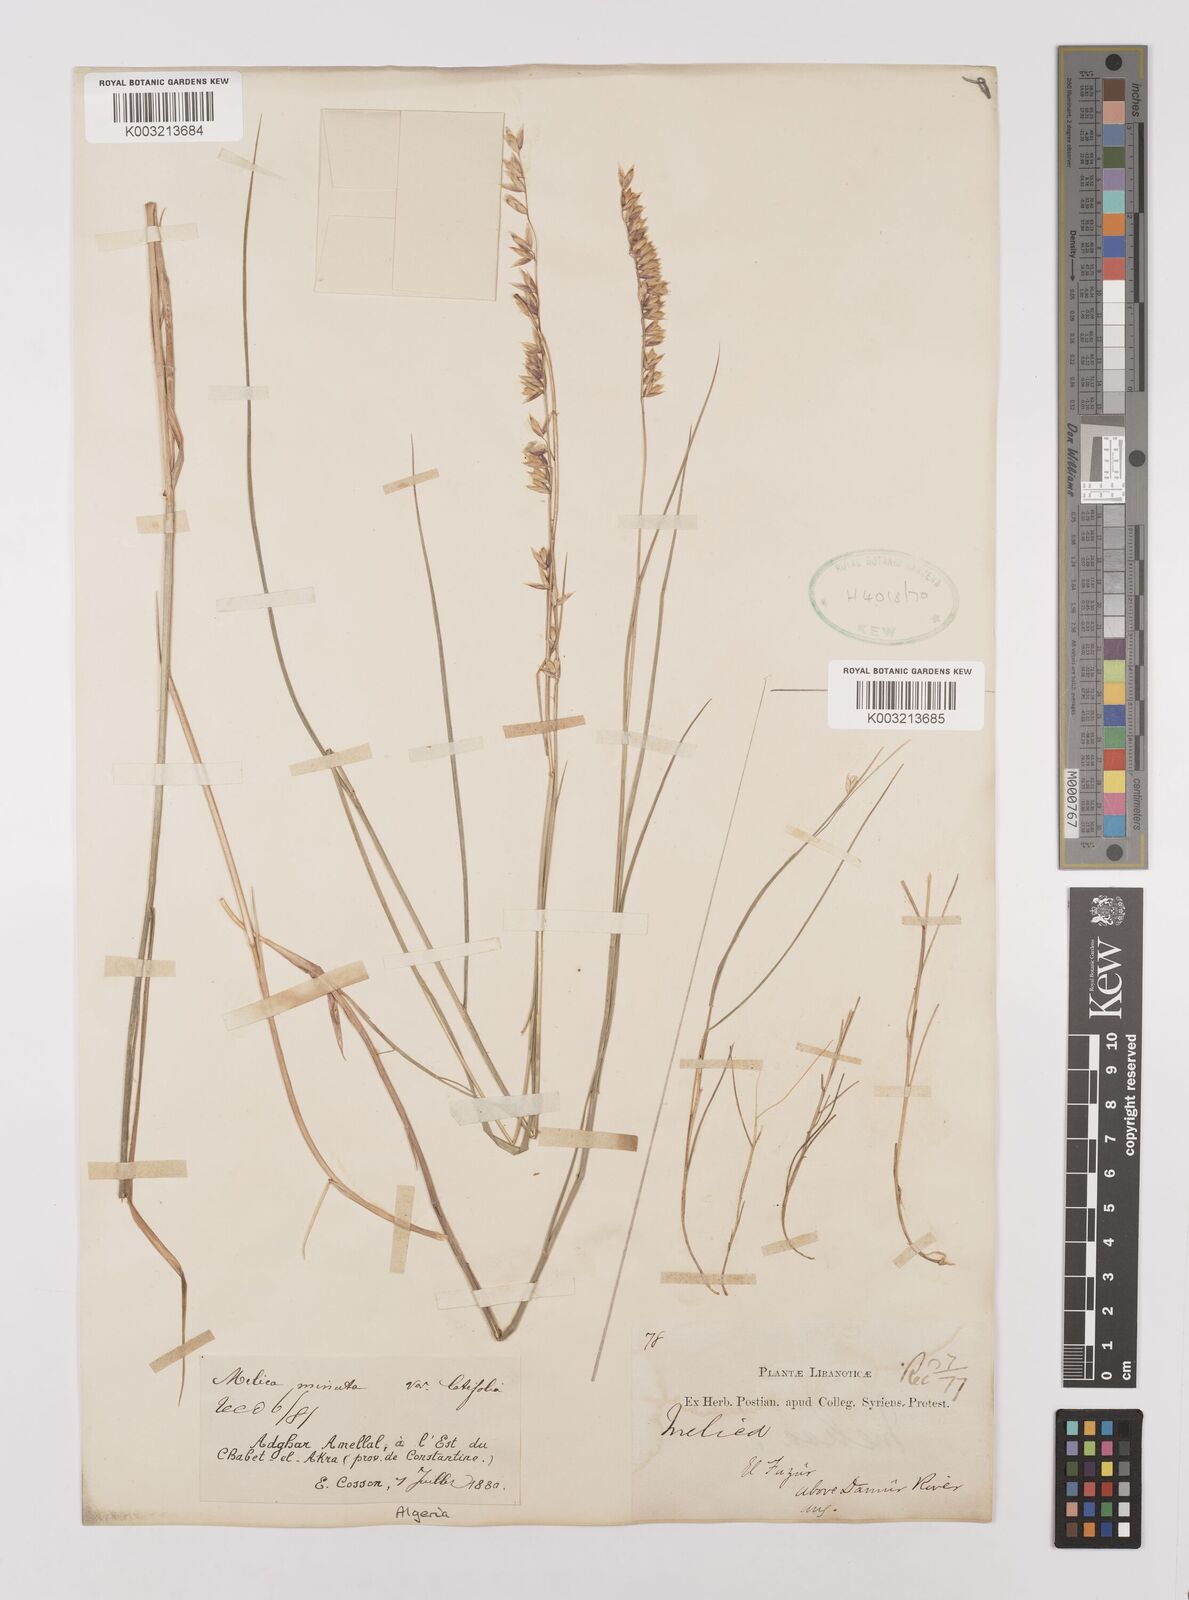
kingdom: Plantae
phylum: Tracheophyta
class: Liliopsida
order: Poales
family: Poaceae
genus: Melica
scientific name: Melica minuta
